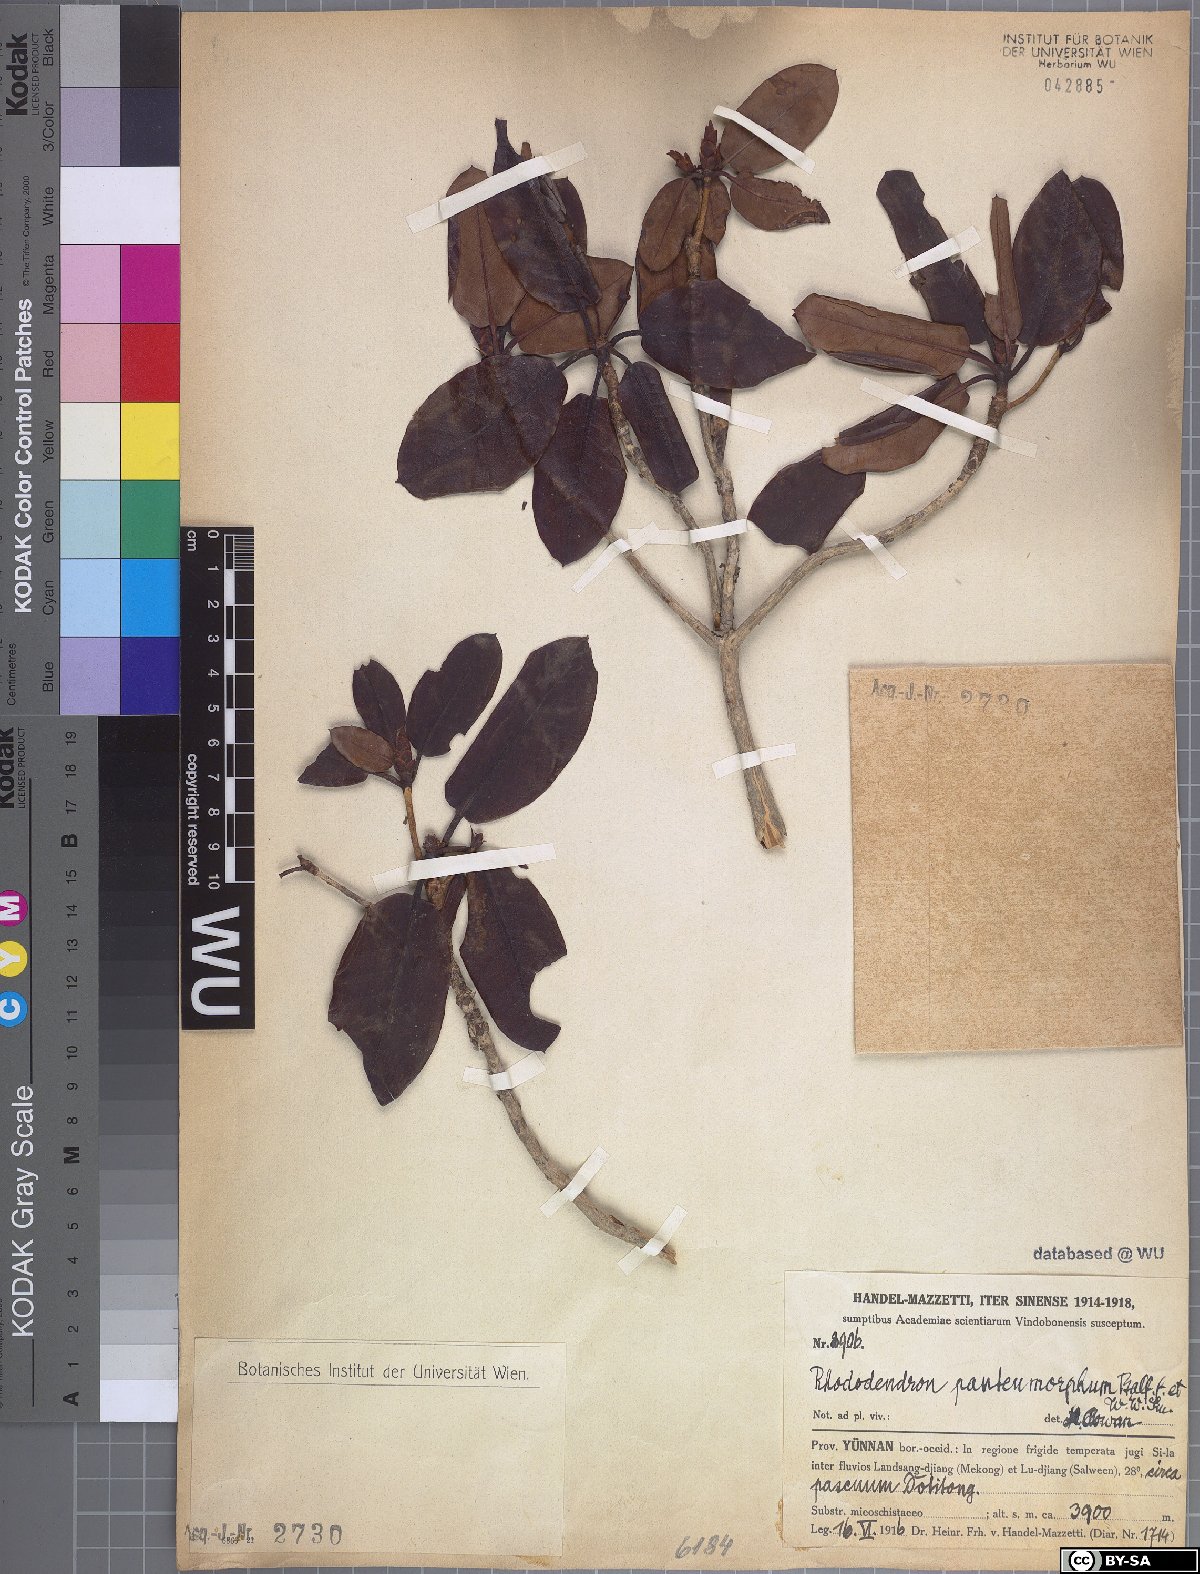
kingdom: Plantae
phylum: Tracheophyta
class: Magnoliopsida
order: Ericales
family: Ericaceae
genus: Rhododendron
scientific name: Rhododendron erythrocalyx
